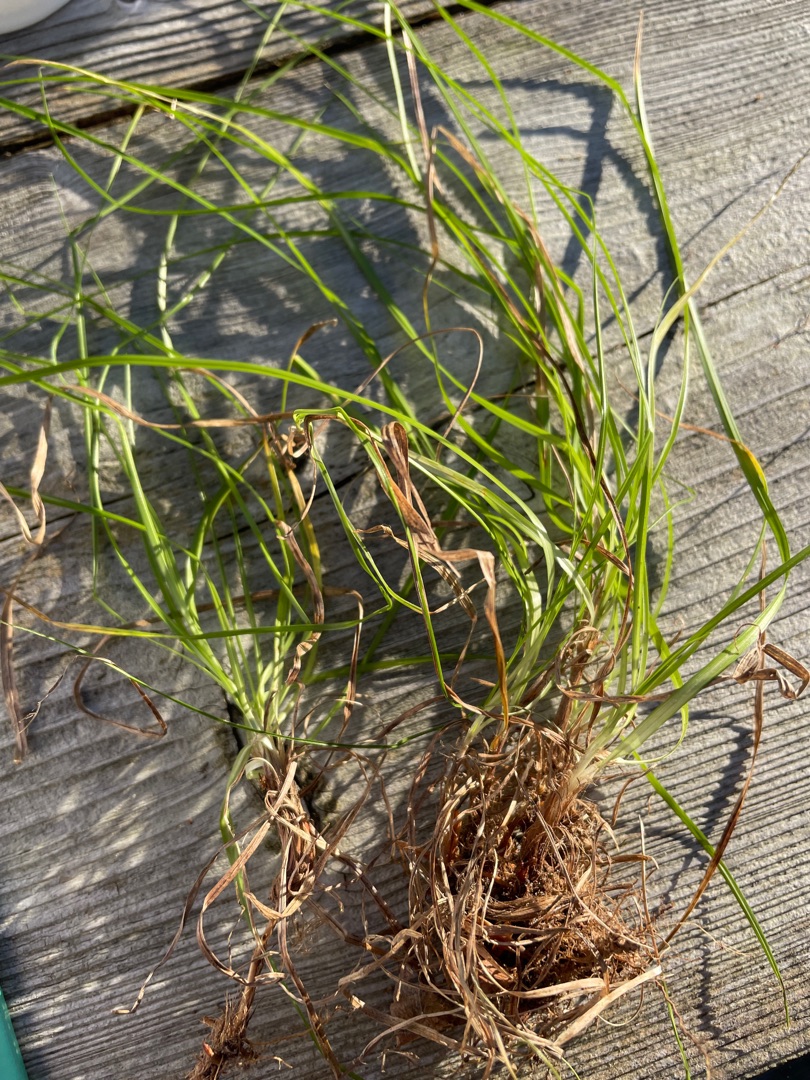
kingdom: Plantae
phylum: Tracheophyta
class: Liliopsida
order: Poales
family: Cyperaceae
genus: Carex
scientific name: Carex pilulifera
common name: Pille-star
